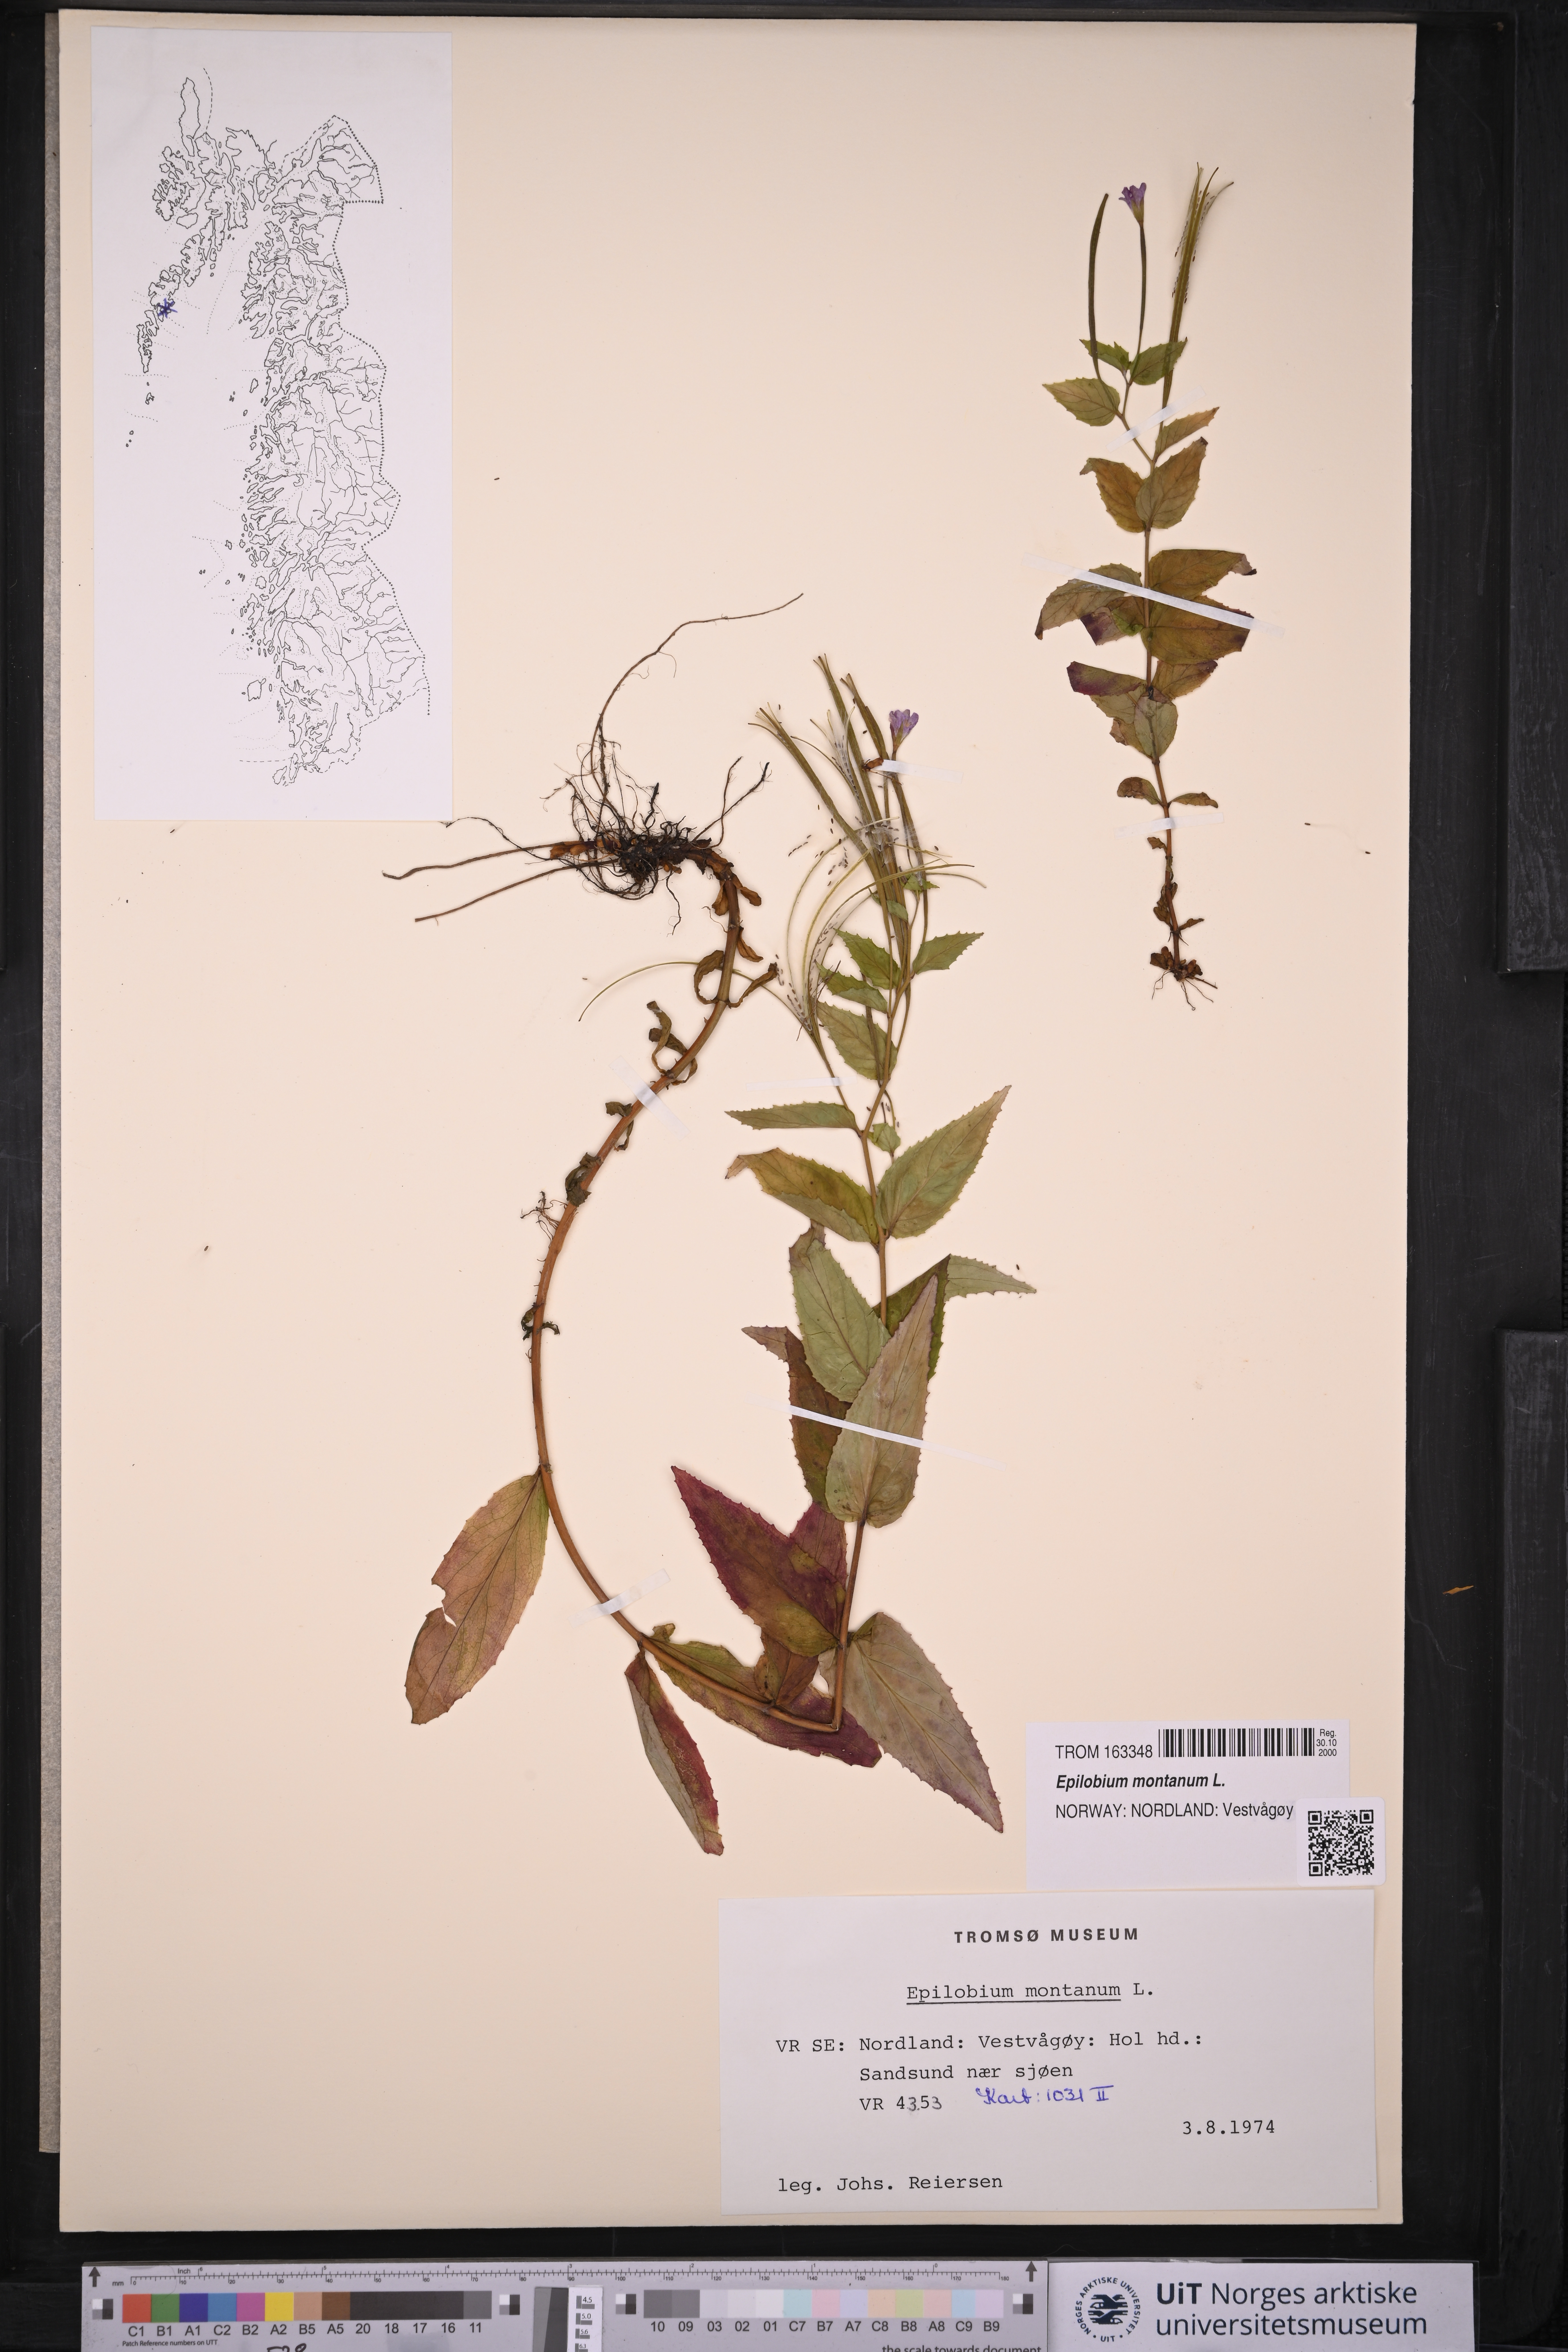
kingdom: Plantae
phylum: Tracheophyta
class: Magnoliopsida
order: Myrtales
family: Onagraceae
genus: Epilobium
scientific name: Epilobium montanum
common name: Broad-leaved willowherb
